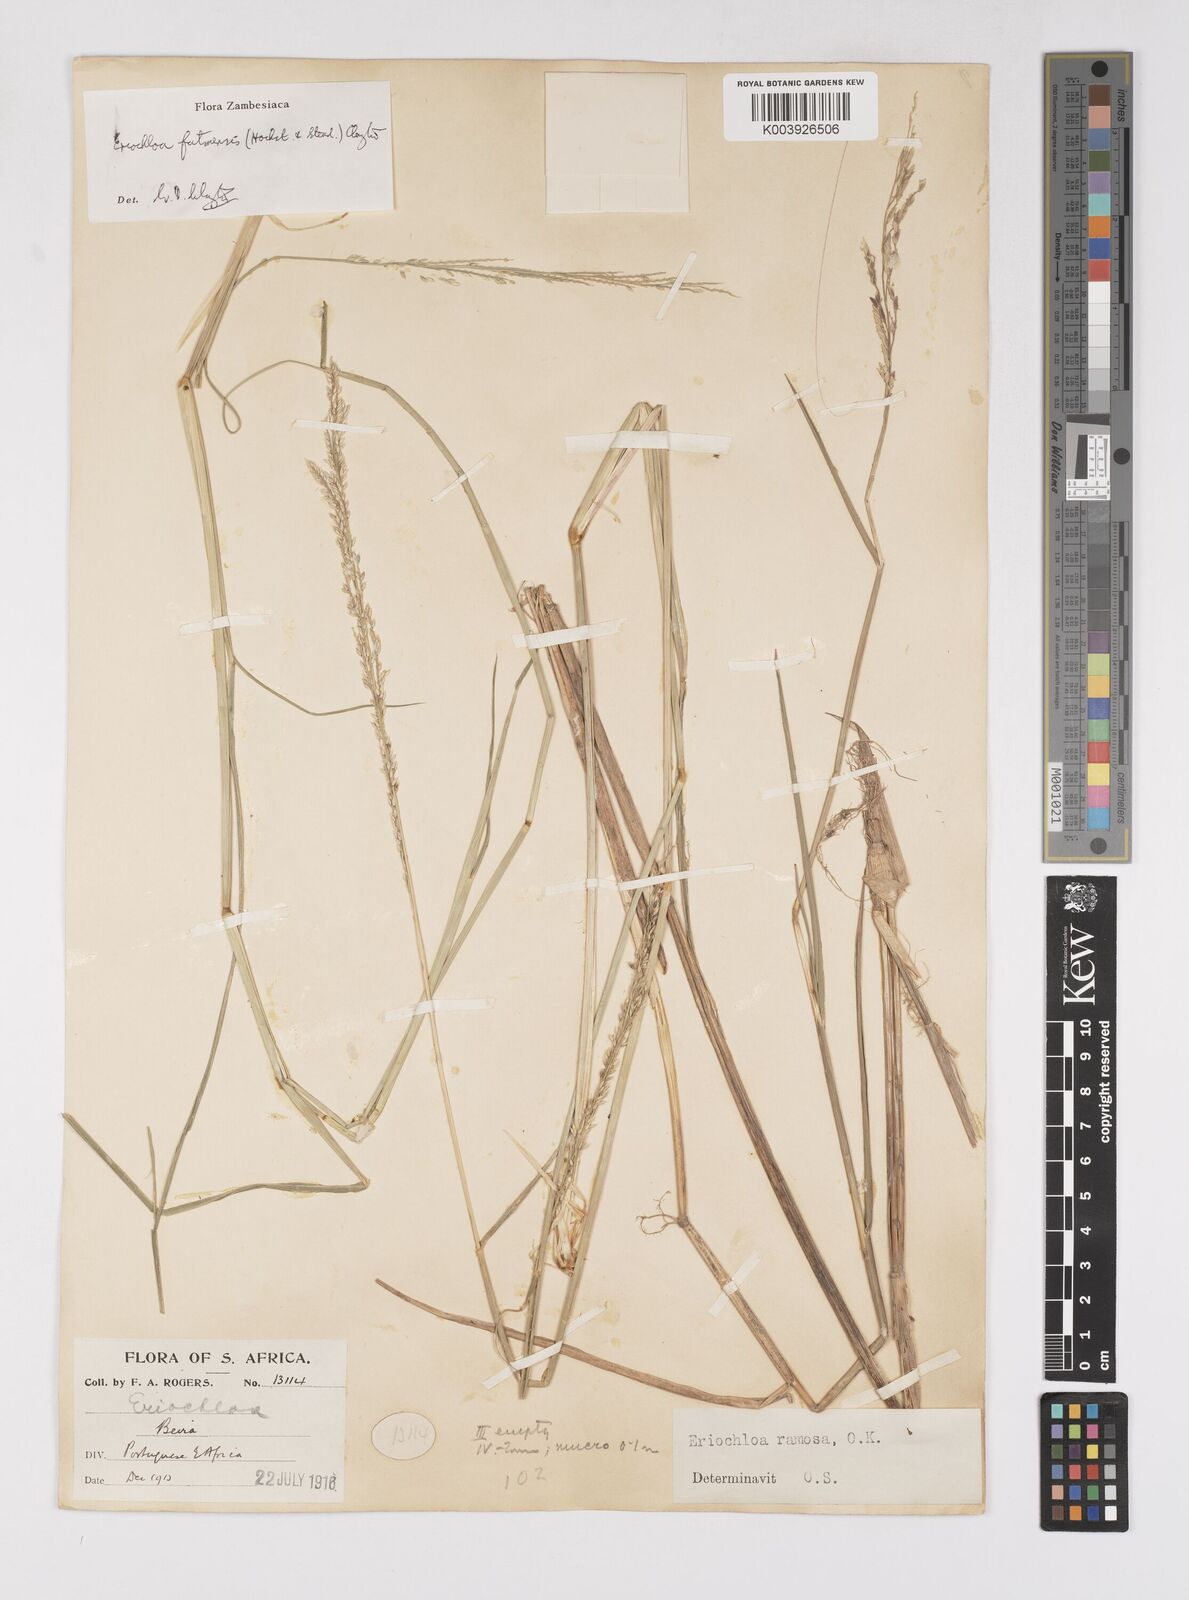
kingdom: Plantae
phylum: Tracheophyta
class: Liliopsida
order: Poales
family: Poaceae
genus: Eriochloa
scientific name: Eriochloa barbatus
